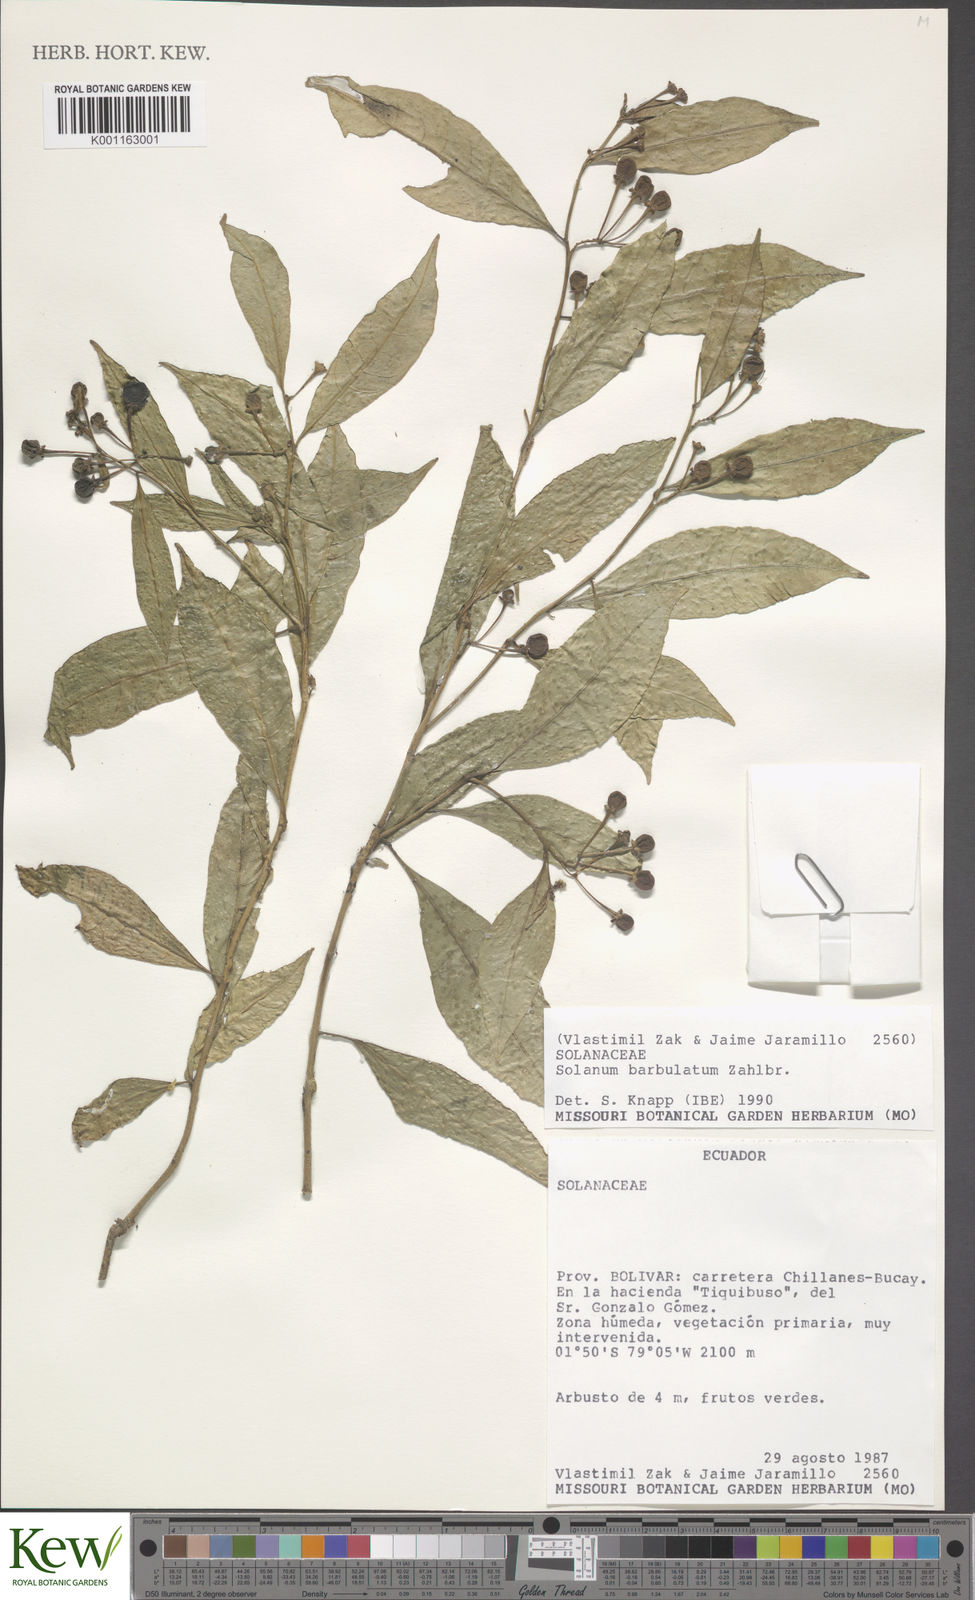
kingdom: Plantae
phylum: Tracheophyta
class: Magnoliopsida
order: Solanales
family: Solanaceae
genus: Solanum
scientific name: Solanum barbulatum
